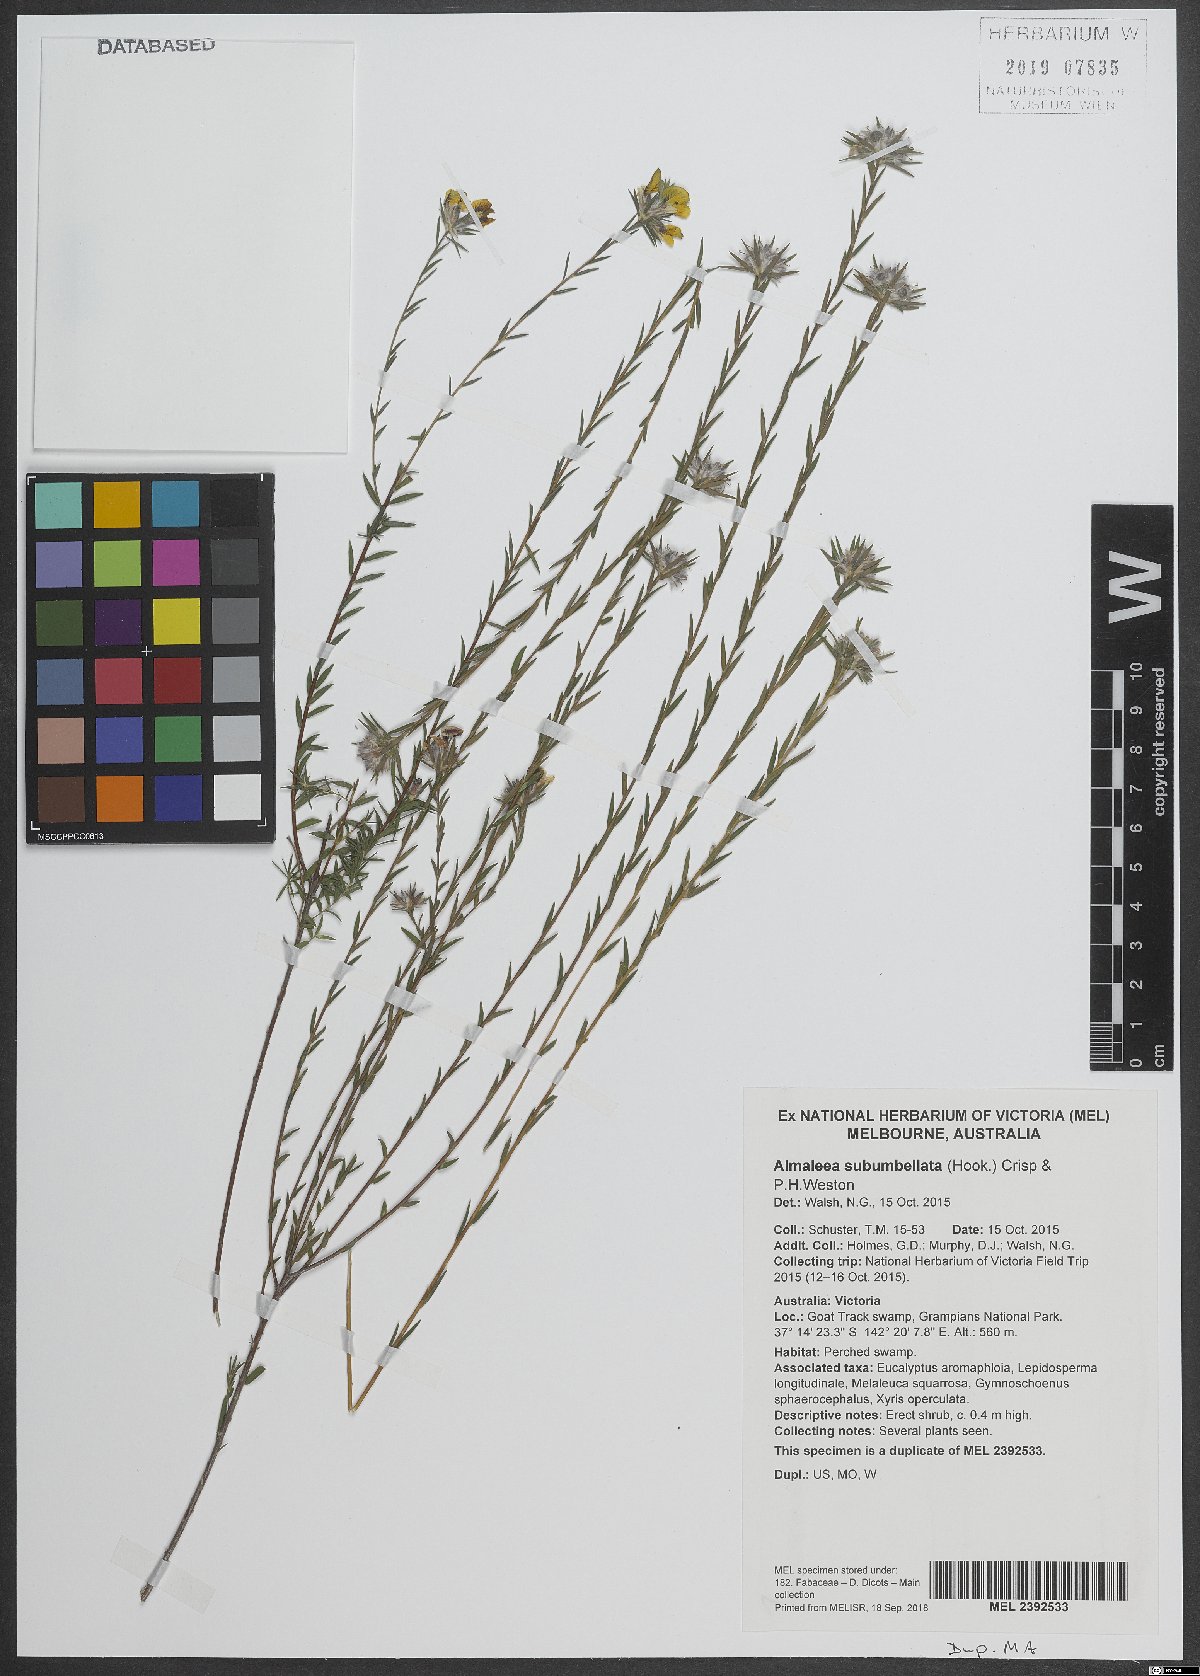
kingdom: Plantae
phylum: Tracheophyta
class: Magnoliopsida
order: Fabales
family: Fabaceae
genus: Almaleea
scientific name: Almaleea subumbellata
